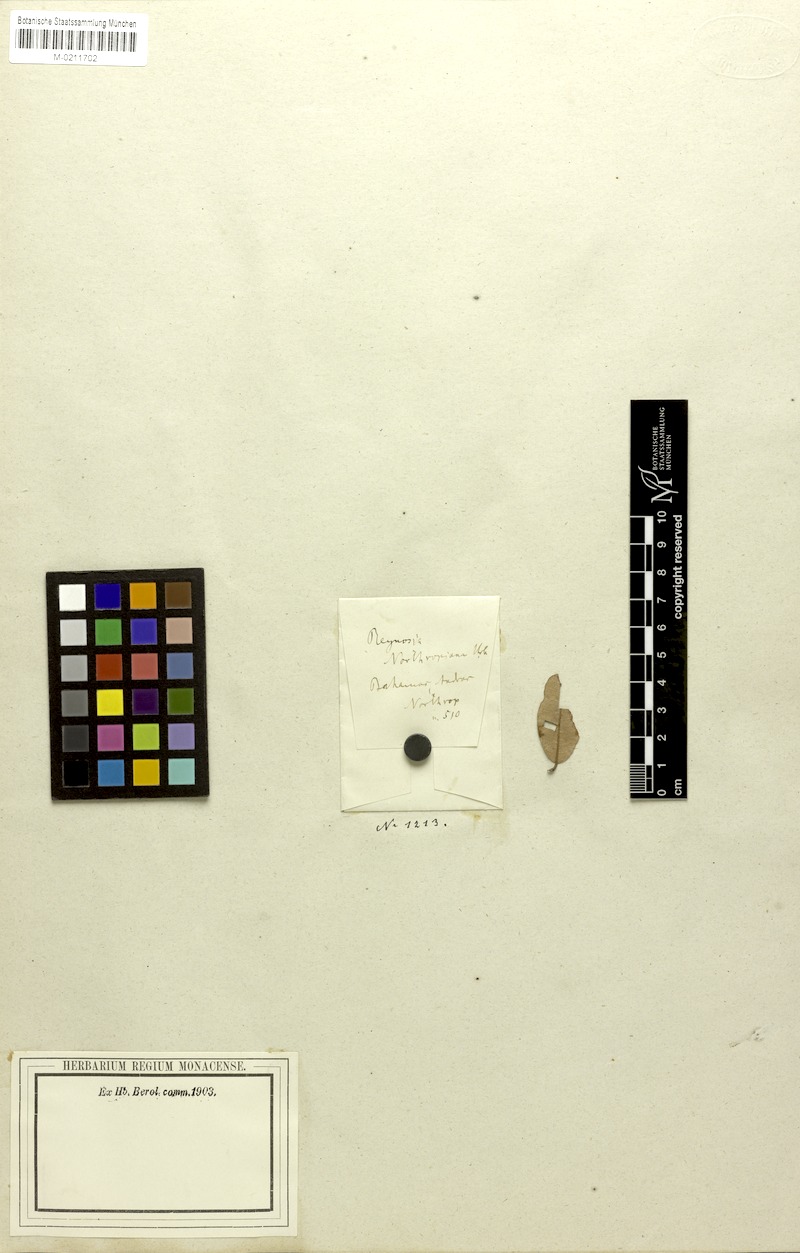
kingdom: Plantae
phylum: Tracheophyta
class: Magnoliopsida
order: Rosales
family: Rhamnaceae
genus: Auerodendron
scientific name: Auerodendron northropianum
